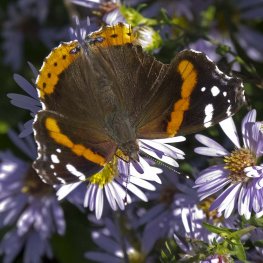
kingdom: Animalia
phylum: Arthropoda
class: Insecta
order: Lepidoptera
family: Nymphalidae
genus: Vanessa
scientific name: Vanessa atalanta
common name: Red Admiral
